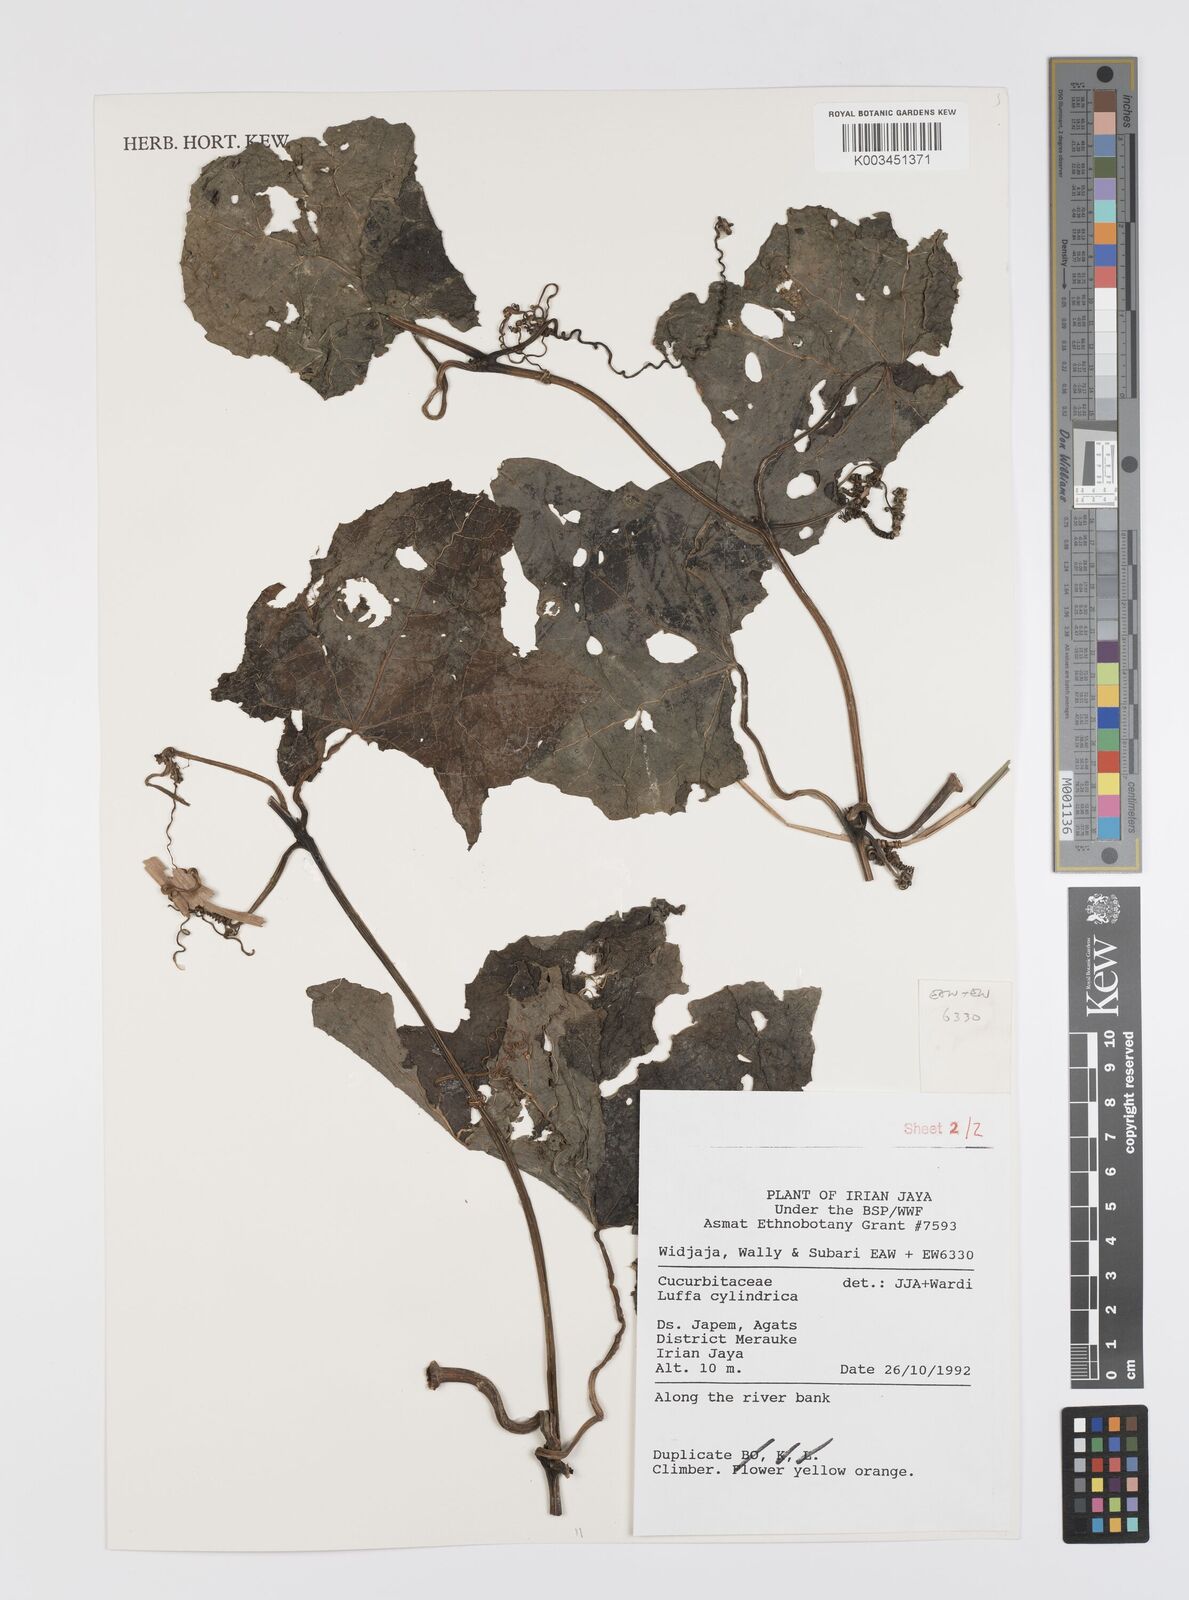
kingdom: Plantae
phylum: Tracheophyta
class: Magnoliopsida
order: Cucurbitales
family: Cucurbitaceae
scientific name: Cucurbitaceae
